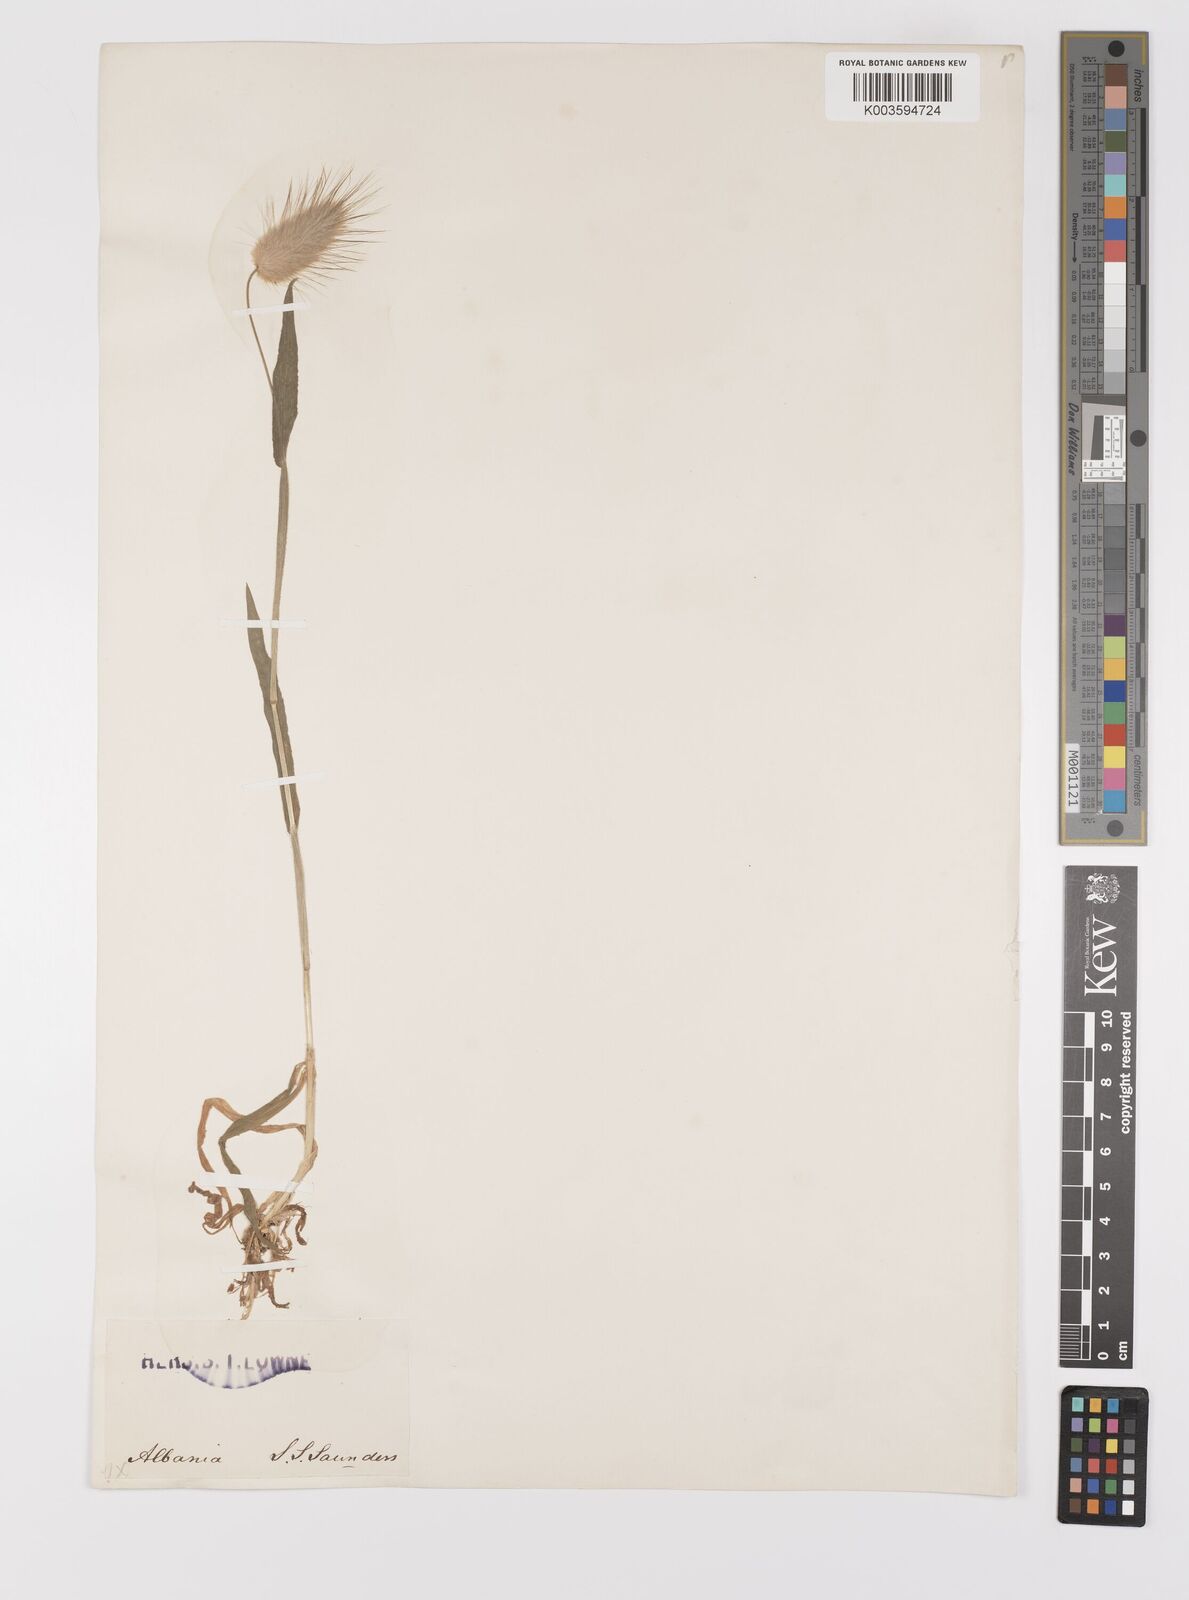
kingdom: Plantae
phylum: Tracheophyta
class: Liliopsida
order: Poales
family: Poaceae
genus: Lagurus
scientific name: Lagurus ovatus
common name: Hare's-tail
